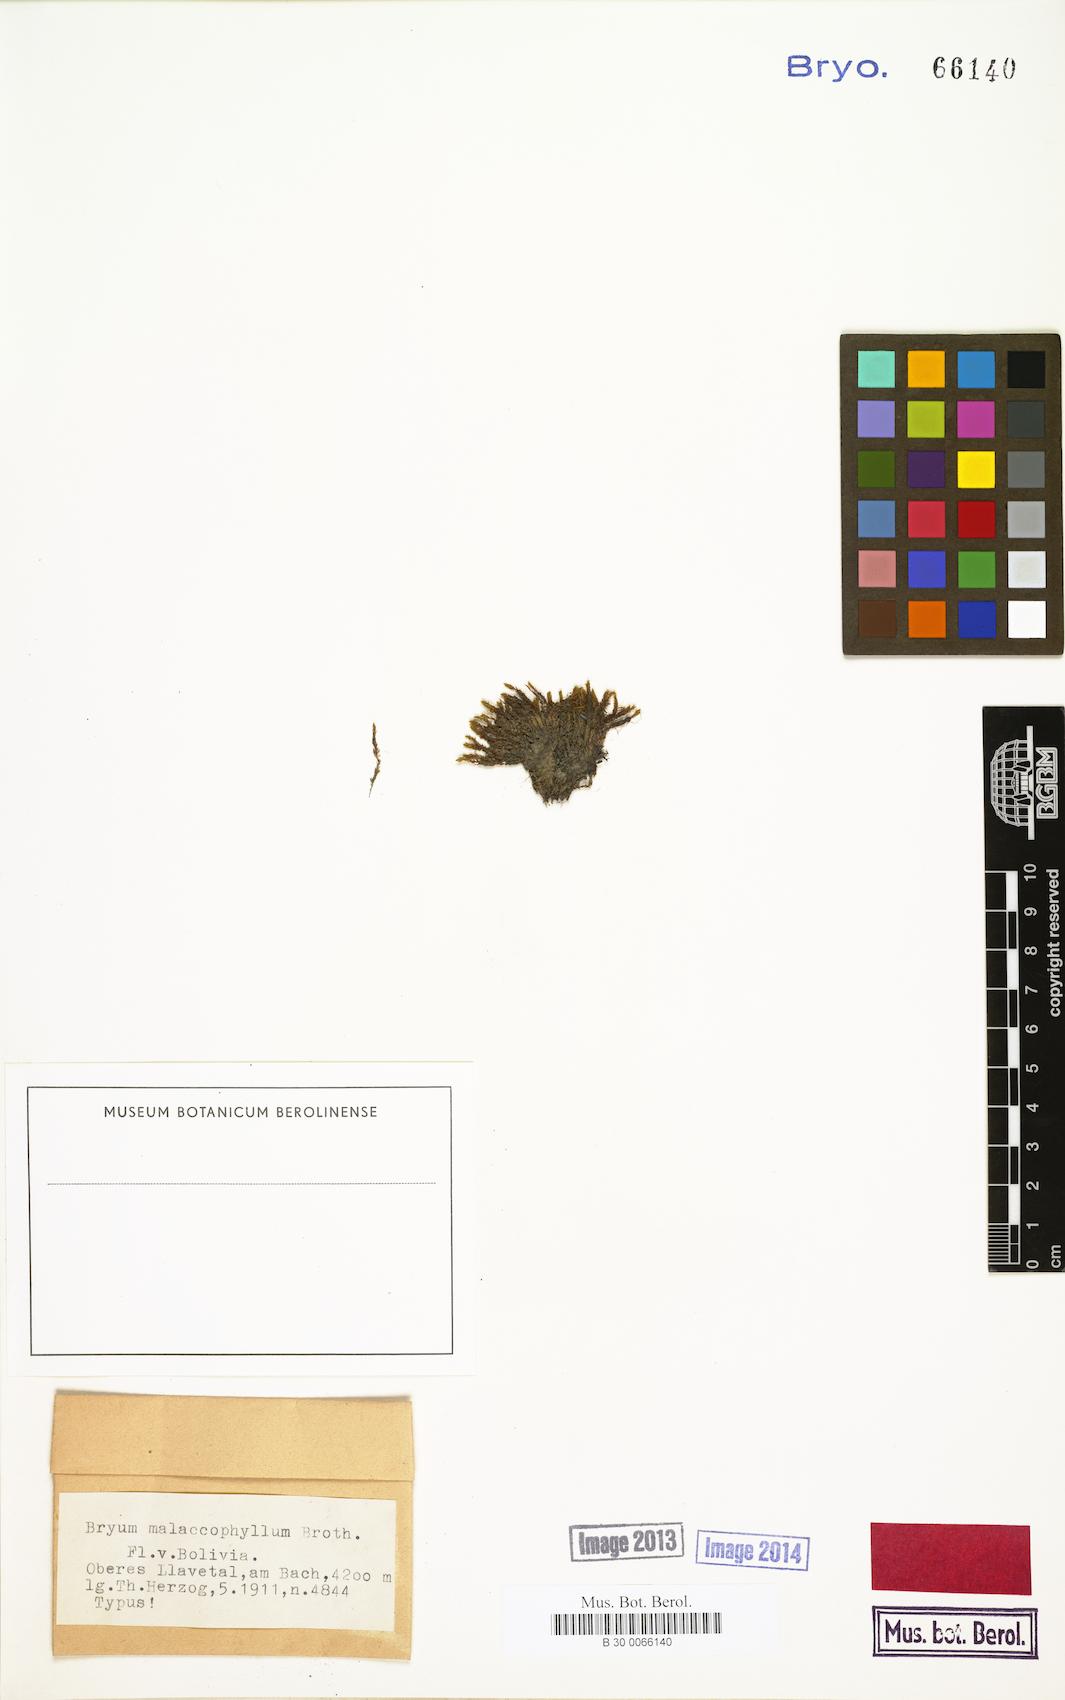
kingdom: Plantae
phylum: Bryophyta
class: Bryopsida
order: Bryales
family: Bryaceae
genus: Ptychostomum
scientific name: Ptychostomum pseudotriquetrum
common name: Long-leaved thread moss
